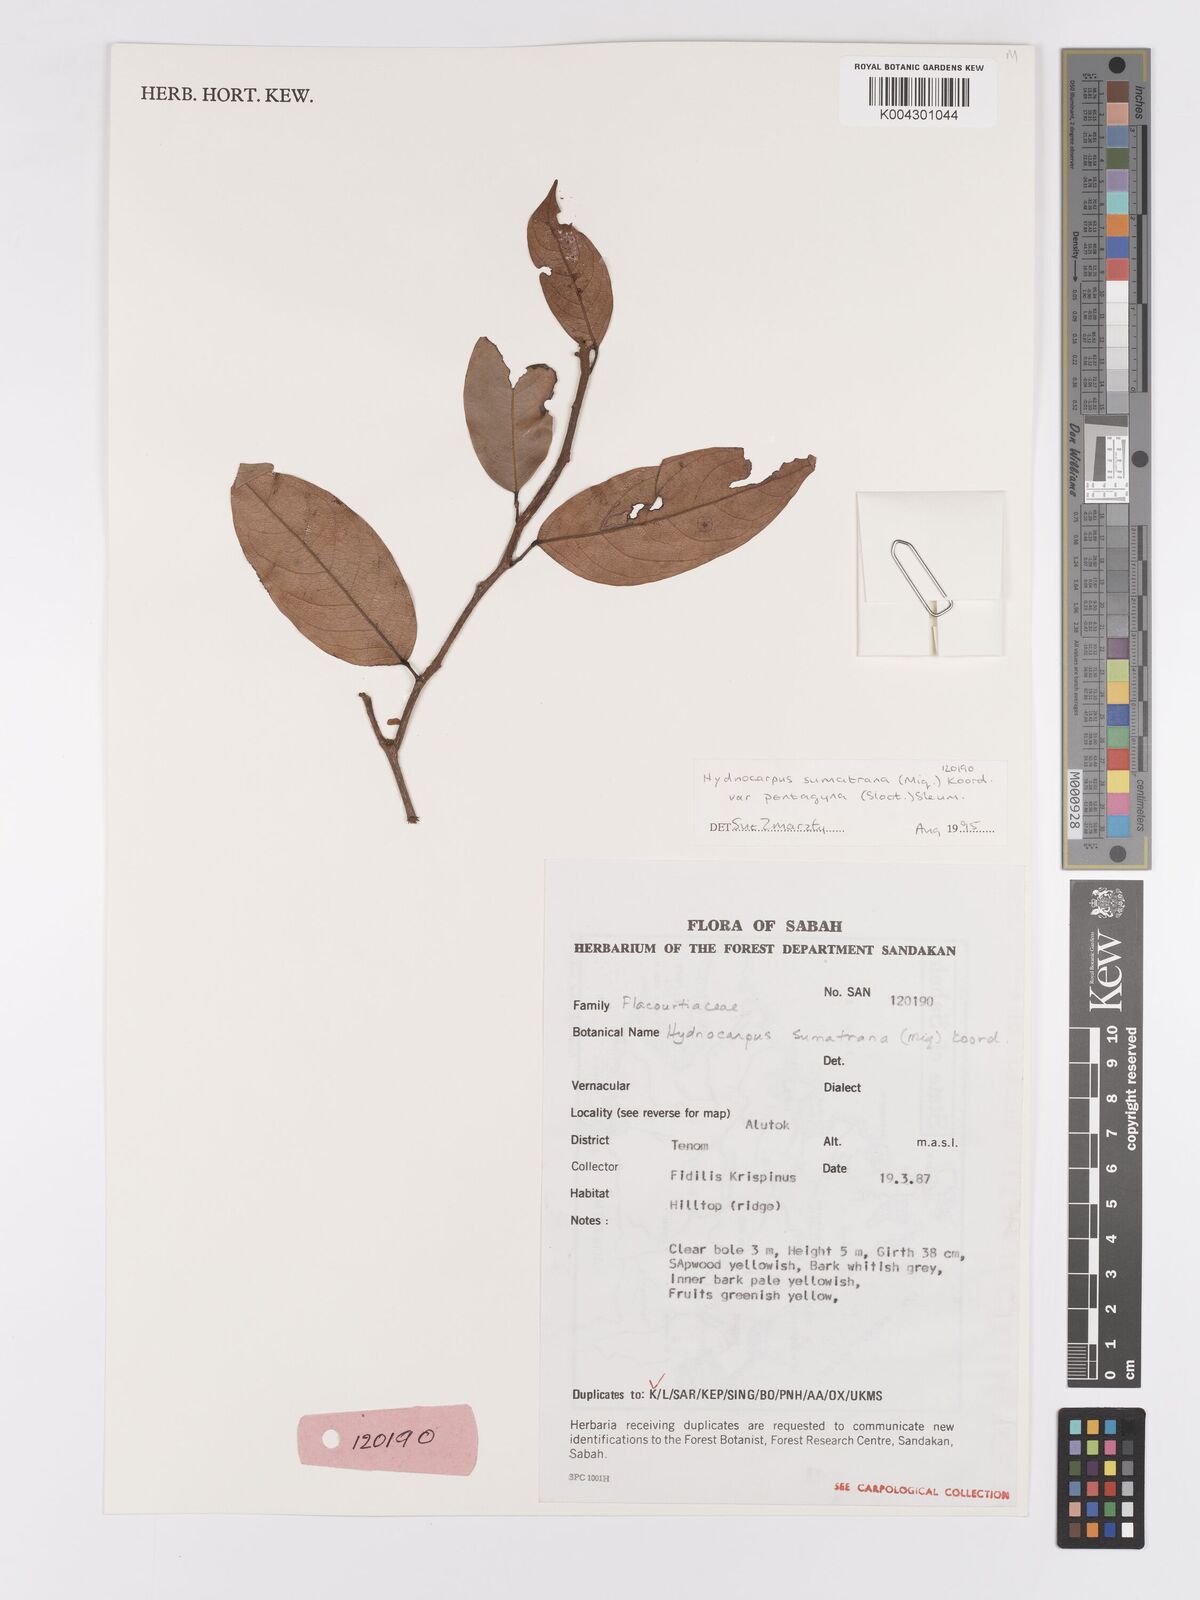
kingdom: Plantae
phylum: Tracheophyta
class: Magnoliopsida
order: Malpighiales
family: Achariaceae
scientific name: Achariaceae
